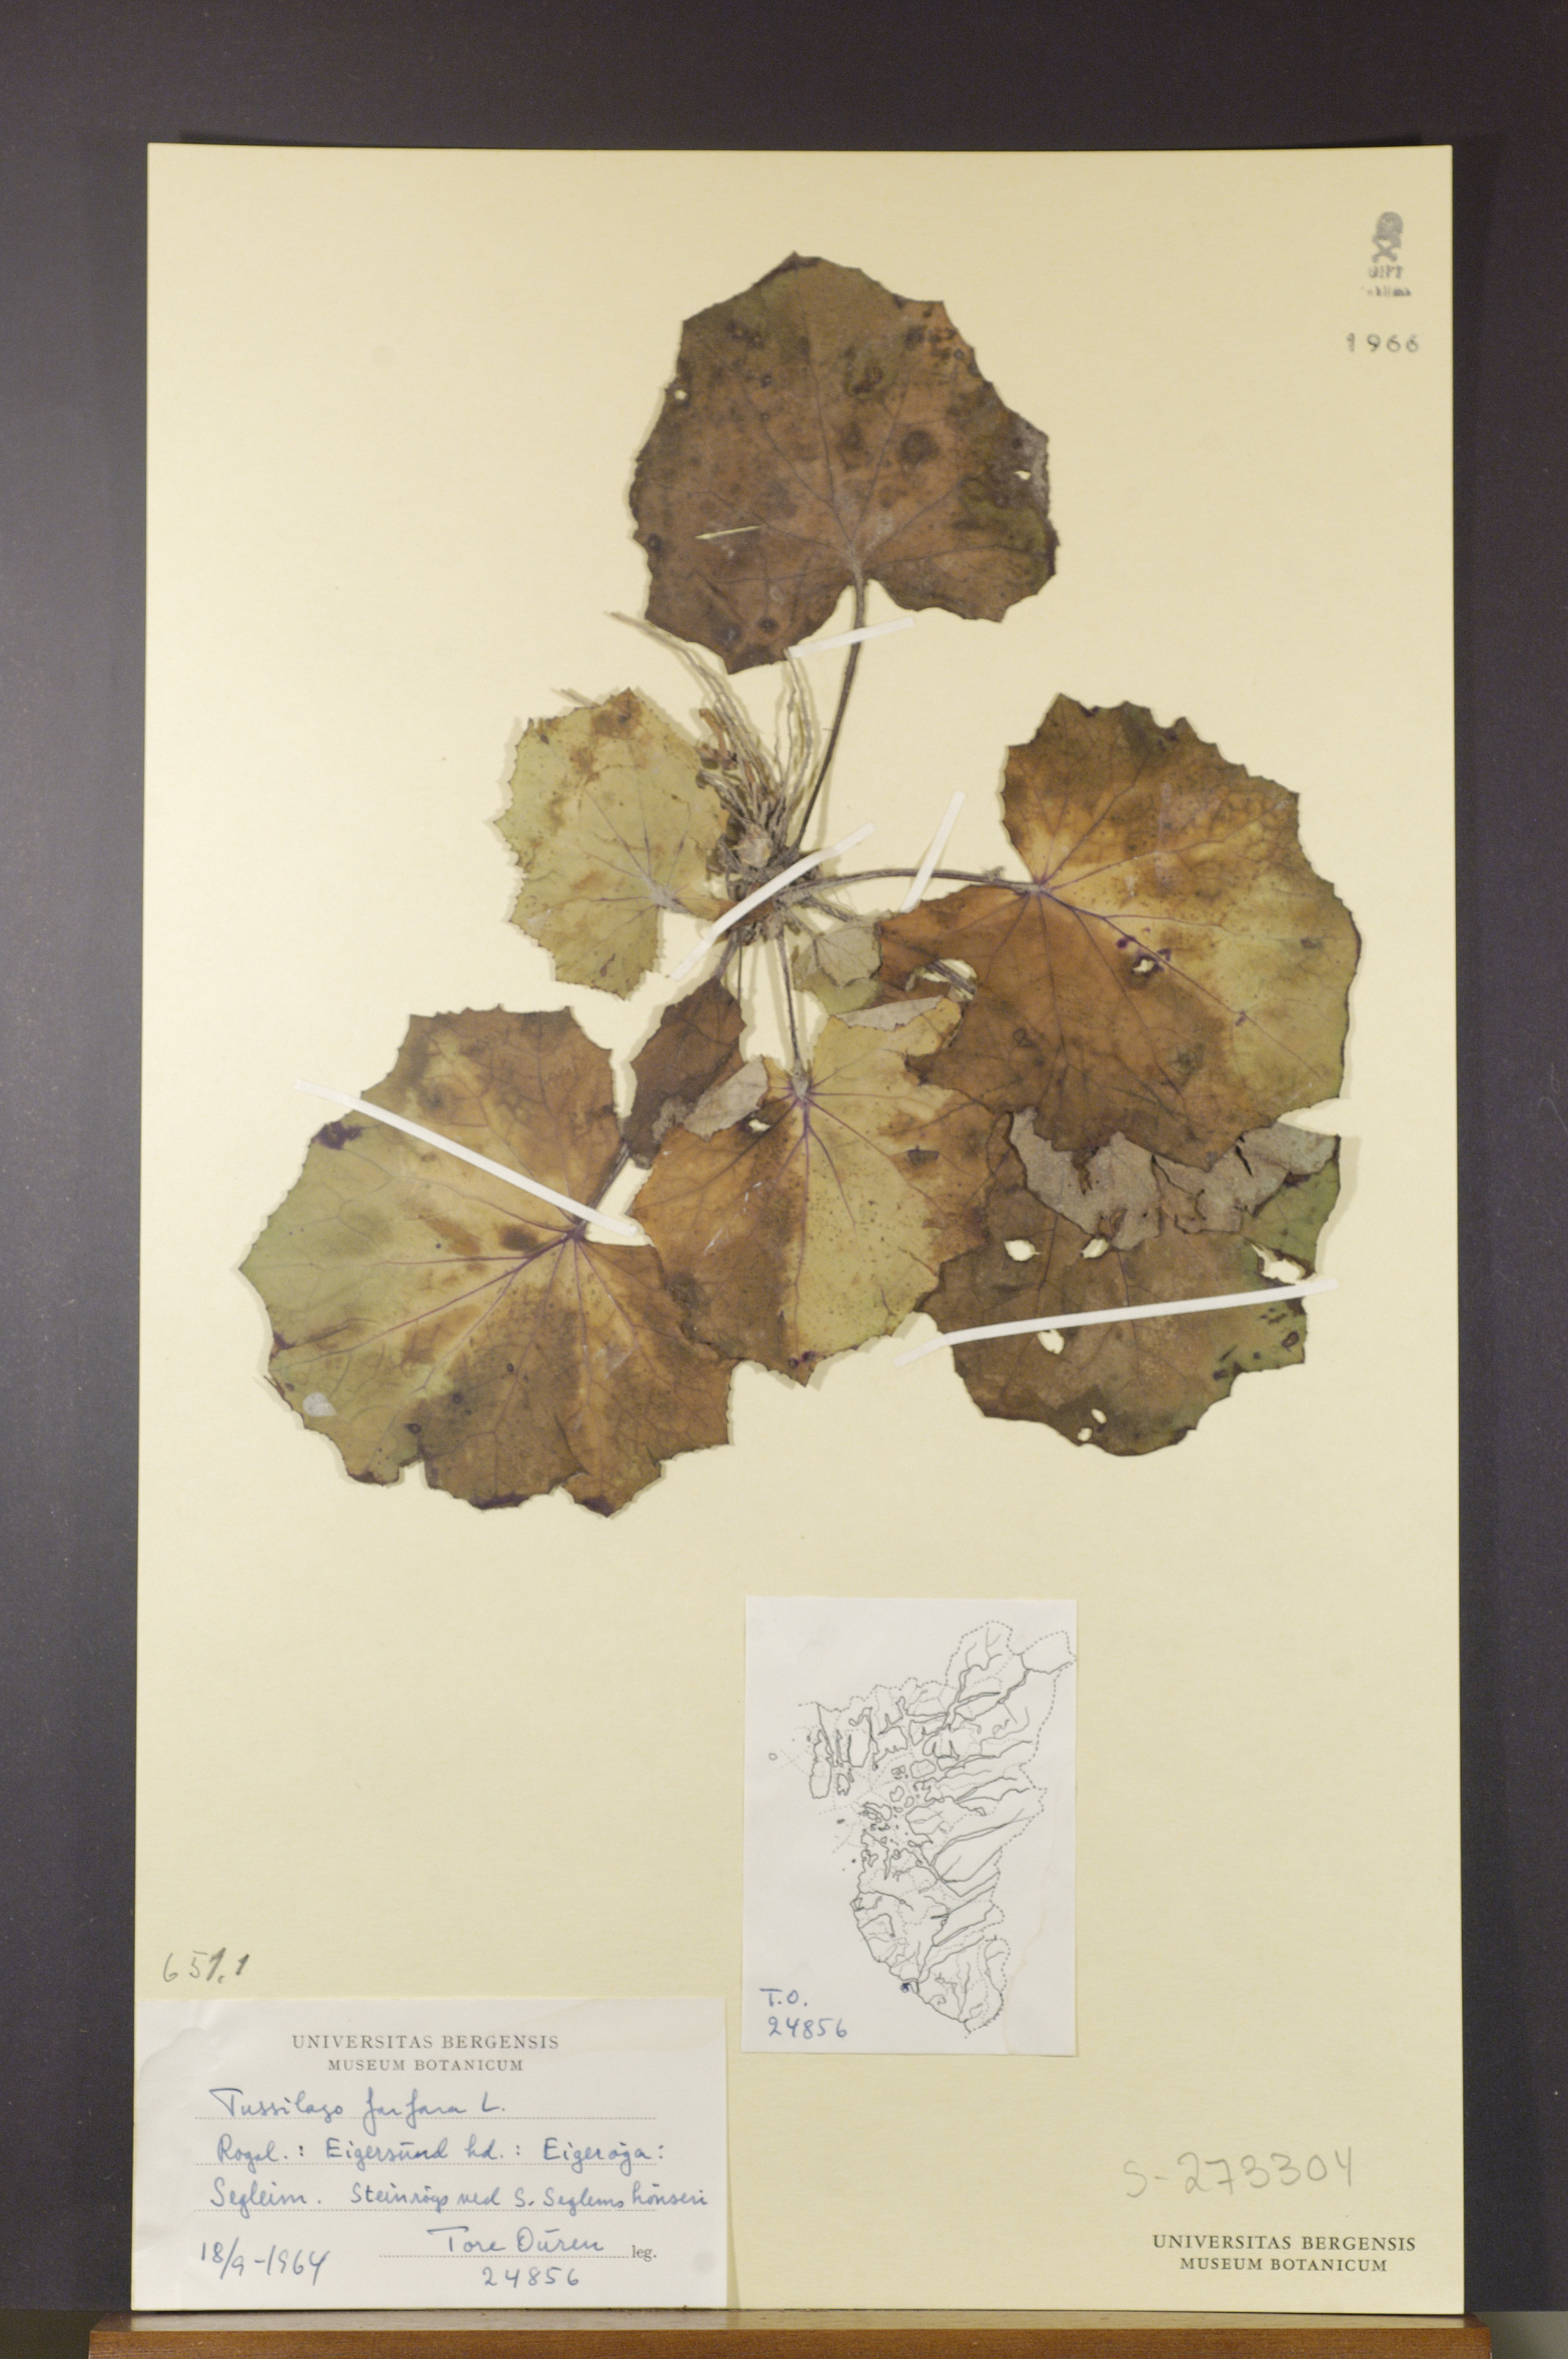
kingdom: Plantae
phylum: Tracheophyta
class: Magnoliopsida
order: Asterales
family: Asteraceae
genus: Tussilago
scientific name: Tussilago farfara
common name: Coltsfoot
